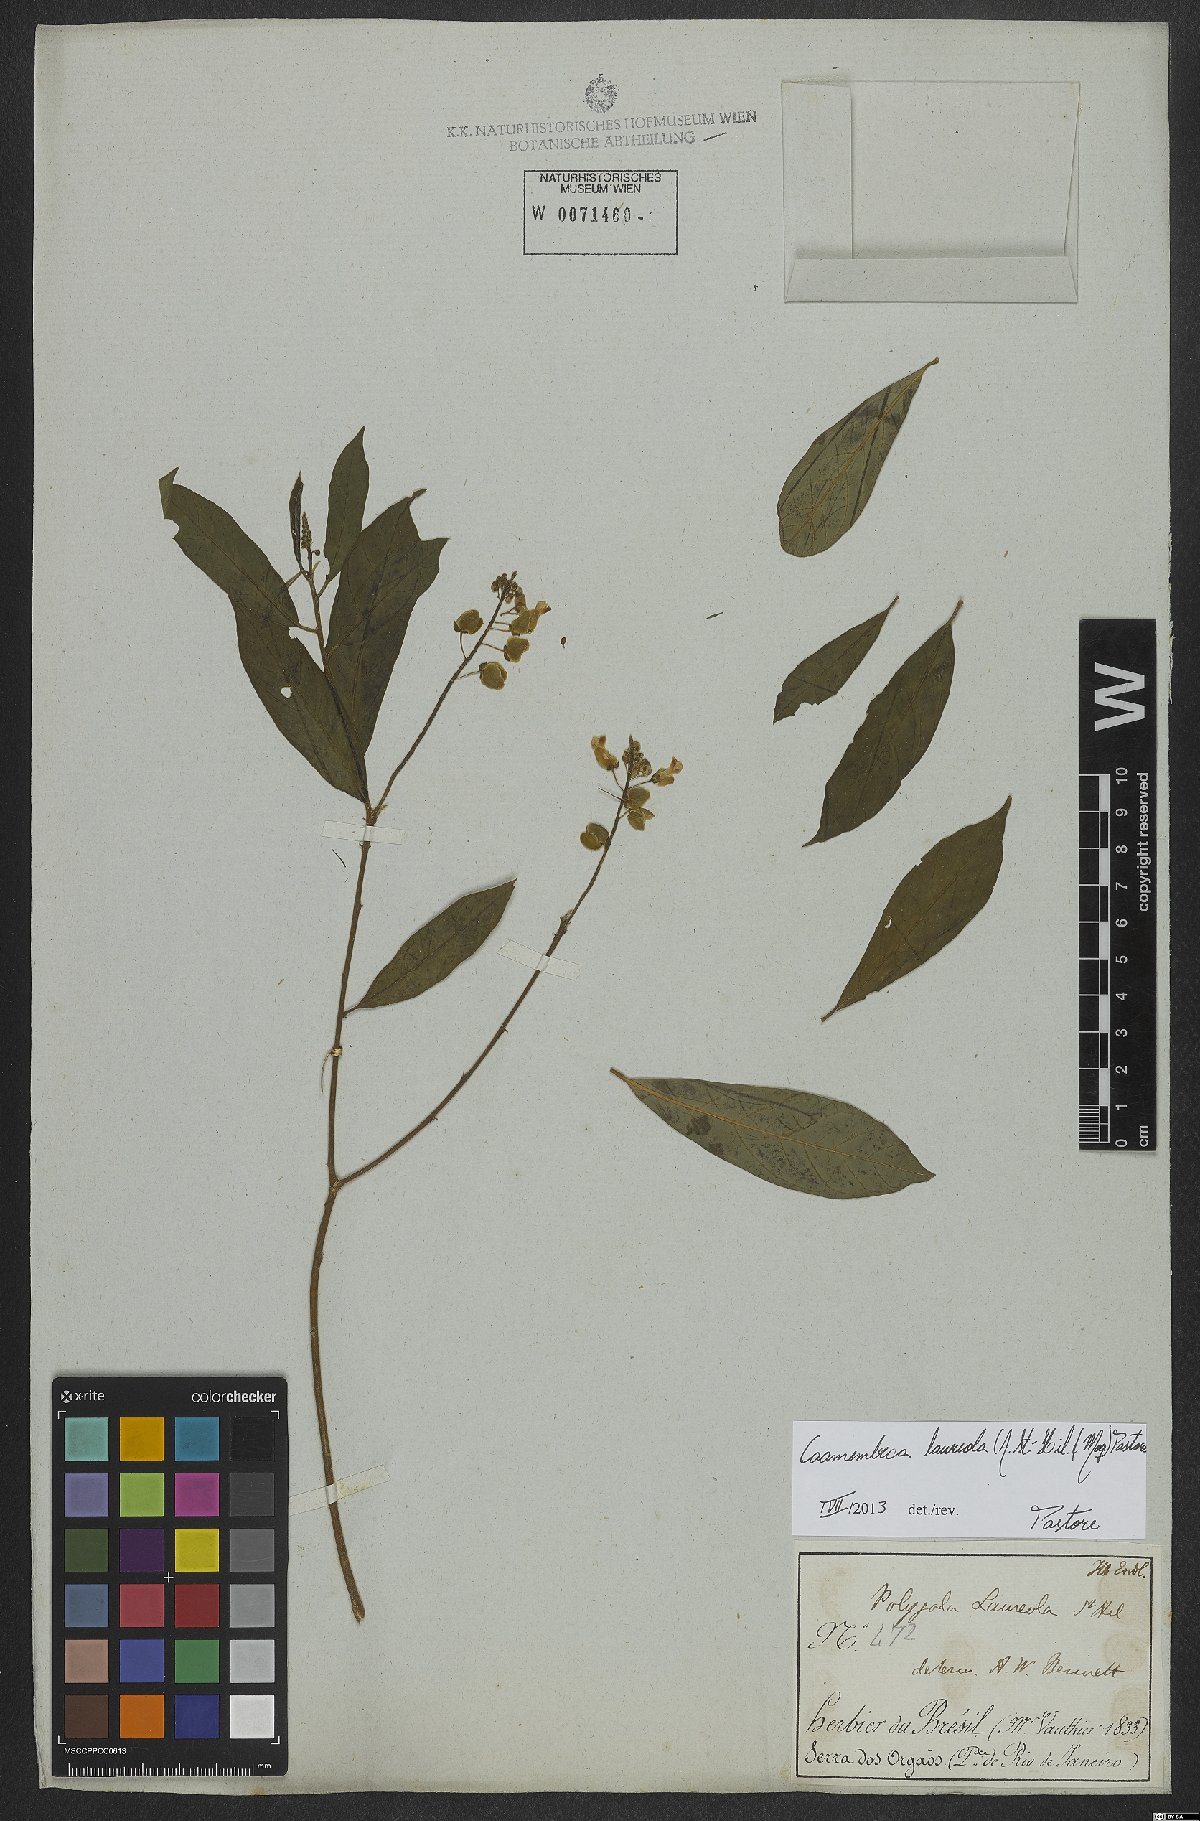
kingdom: Plantae
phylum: Tracheophyta
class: Magnoliopsida
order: Fabales
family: Polygalaceae
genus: Caamembeca
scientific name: Caamembeca salicifolia
